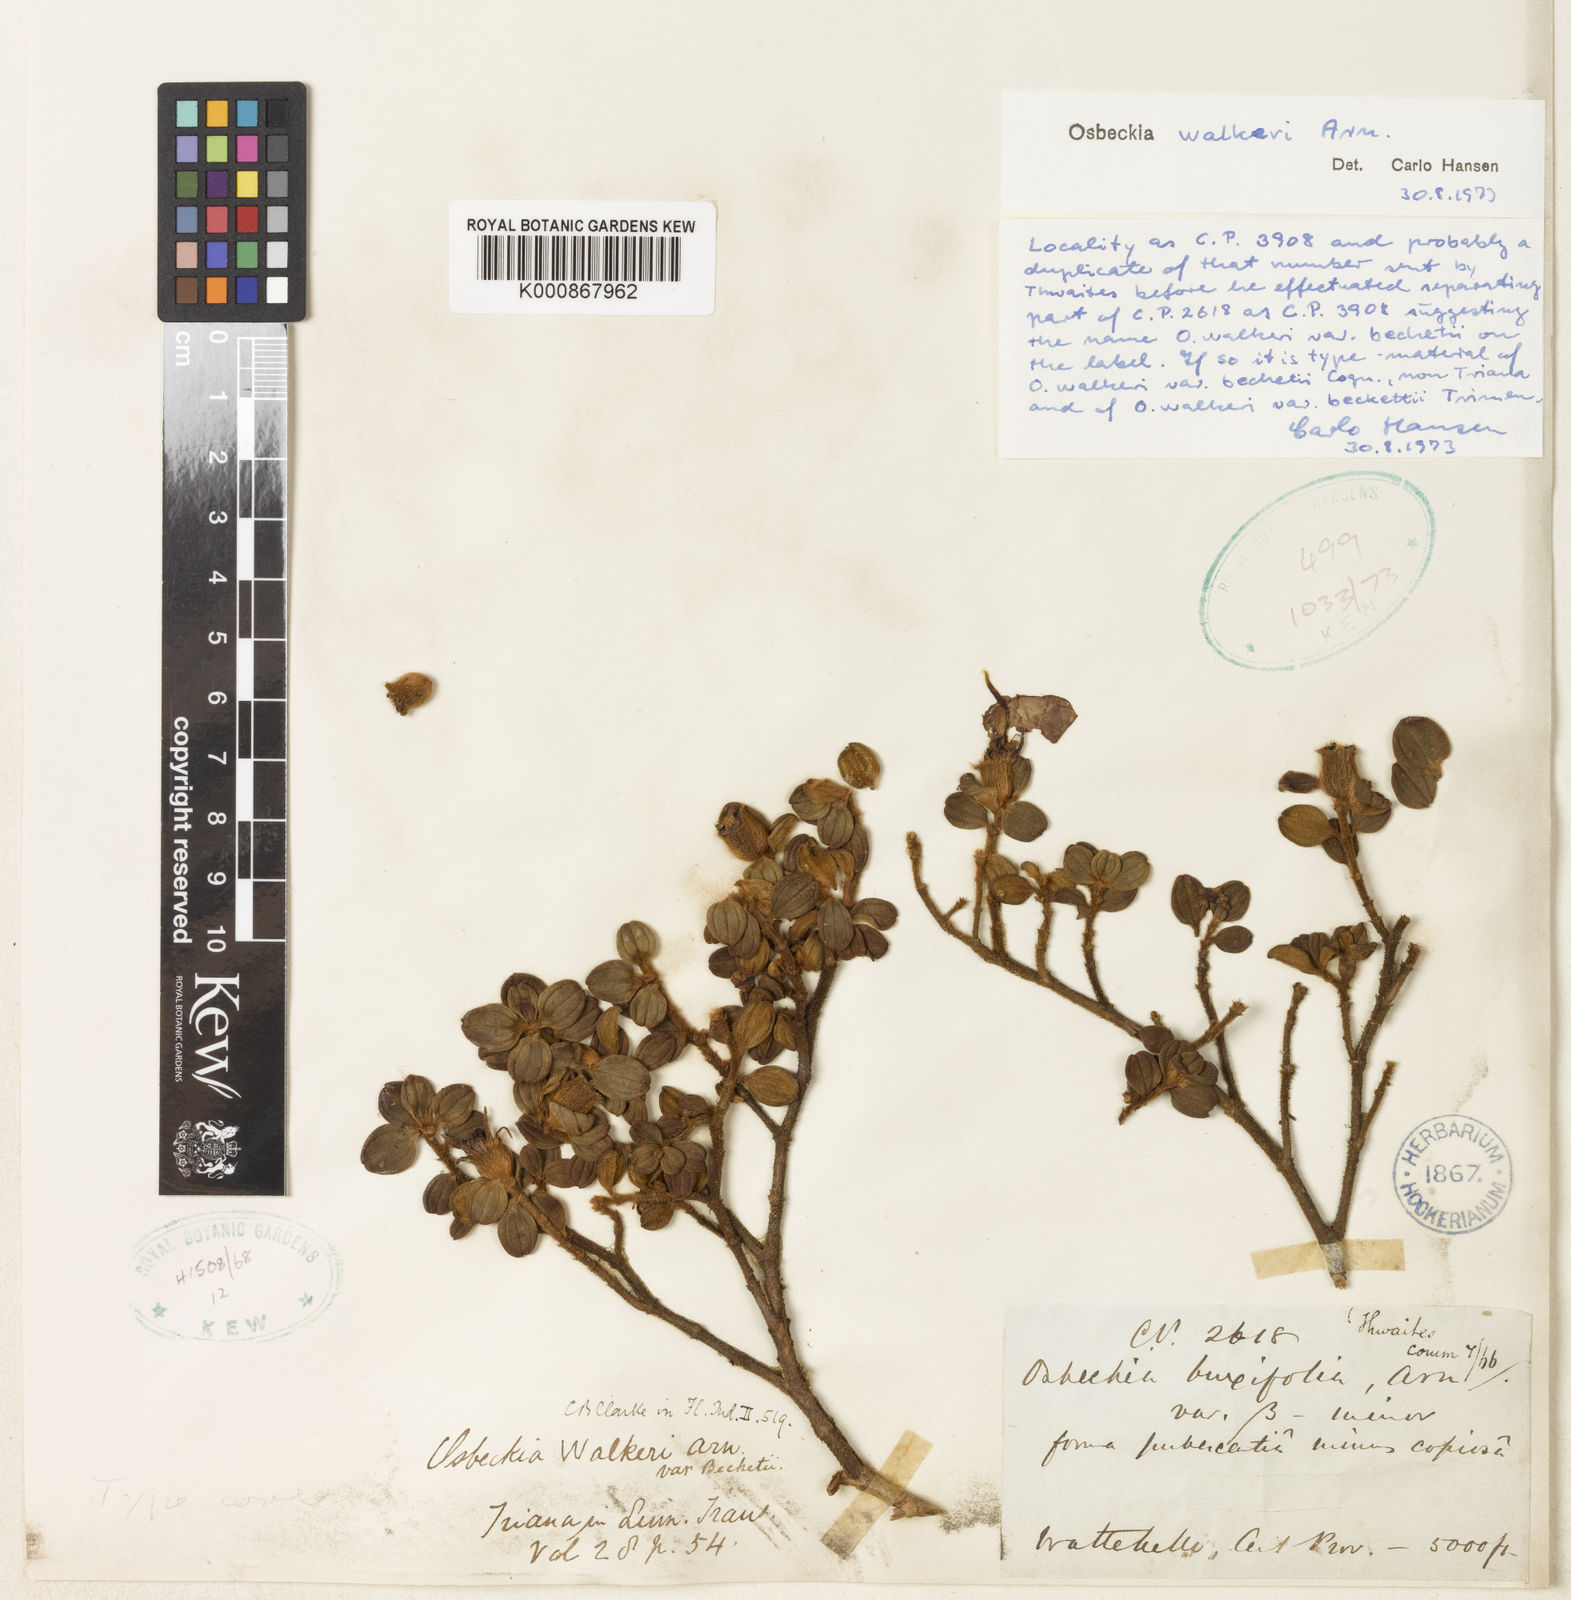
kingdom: Plantae
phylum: Tracheophyta
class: Magnoliopsida
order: Myrtales
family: Melastomataceae
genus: Osbeckia
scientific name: Osbeckia walkeri
